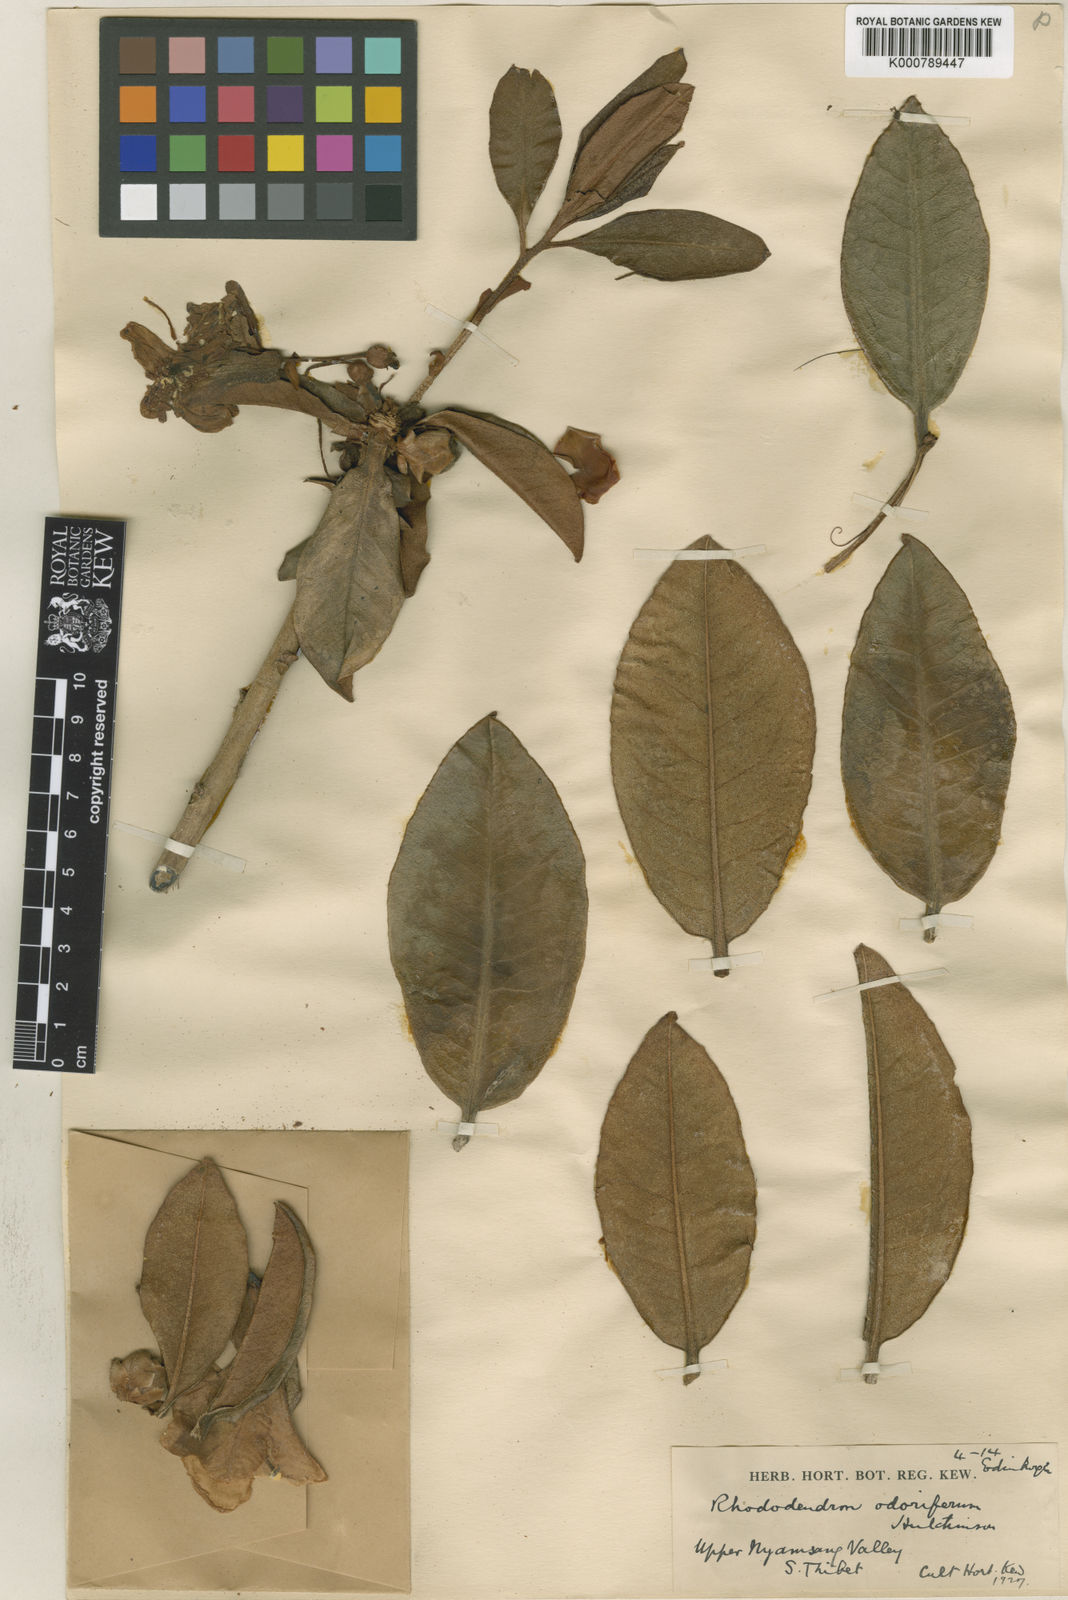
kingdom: Plantae
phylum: Tracheophyta
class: Magnoliopsida
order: Ericales
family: Ericaceae
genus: Rhododendron
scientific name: Rhododendron crassum
